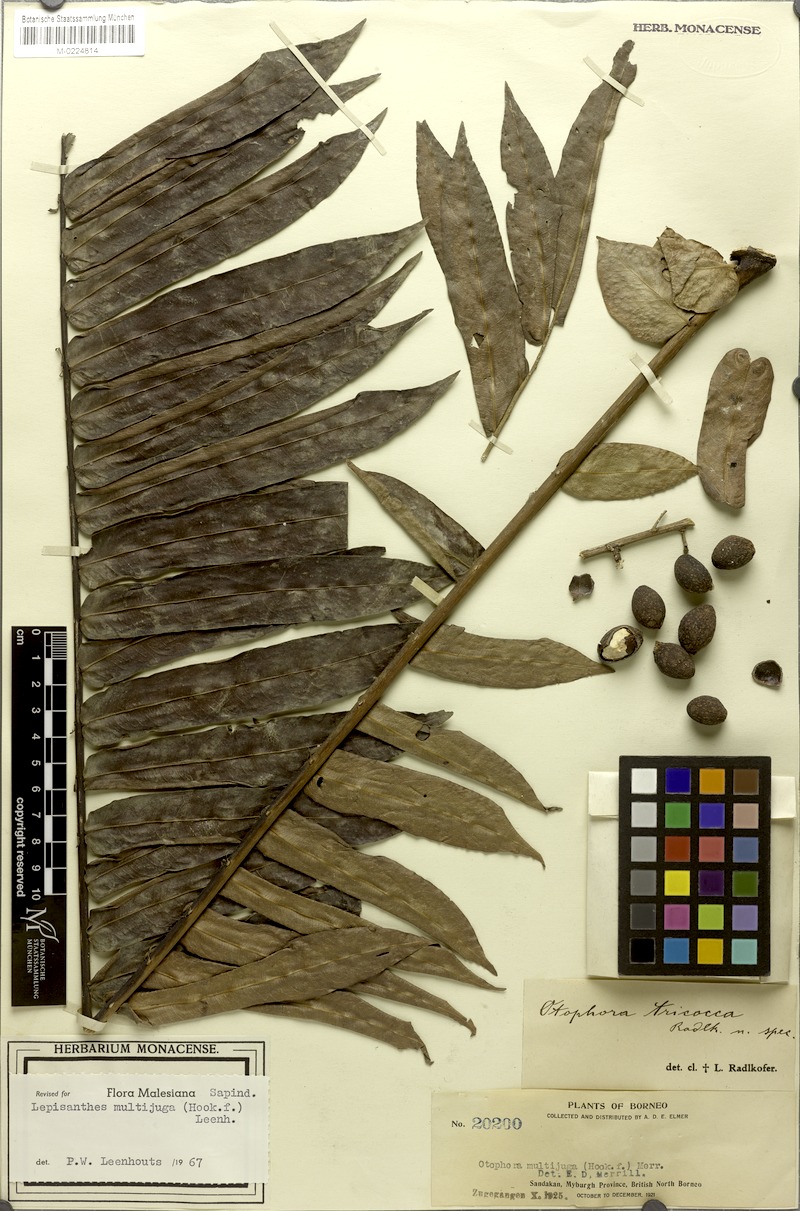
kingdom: Plantae
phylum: Tracheophyta
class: Magnoliopsida
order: Sapindales
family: Sapindaceae
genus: Lepisanthes
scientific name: Lepisanthes multijuga
